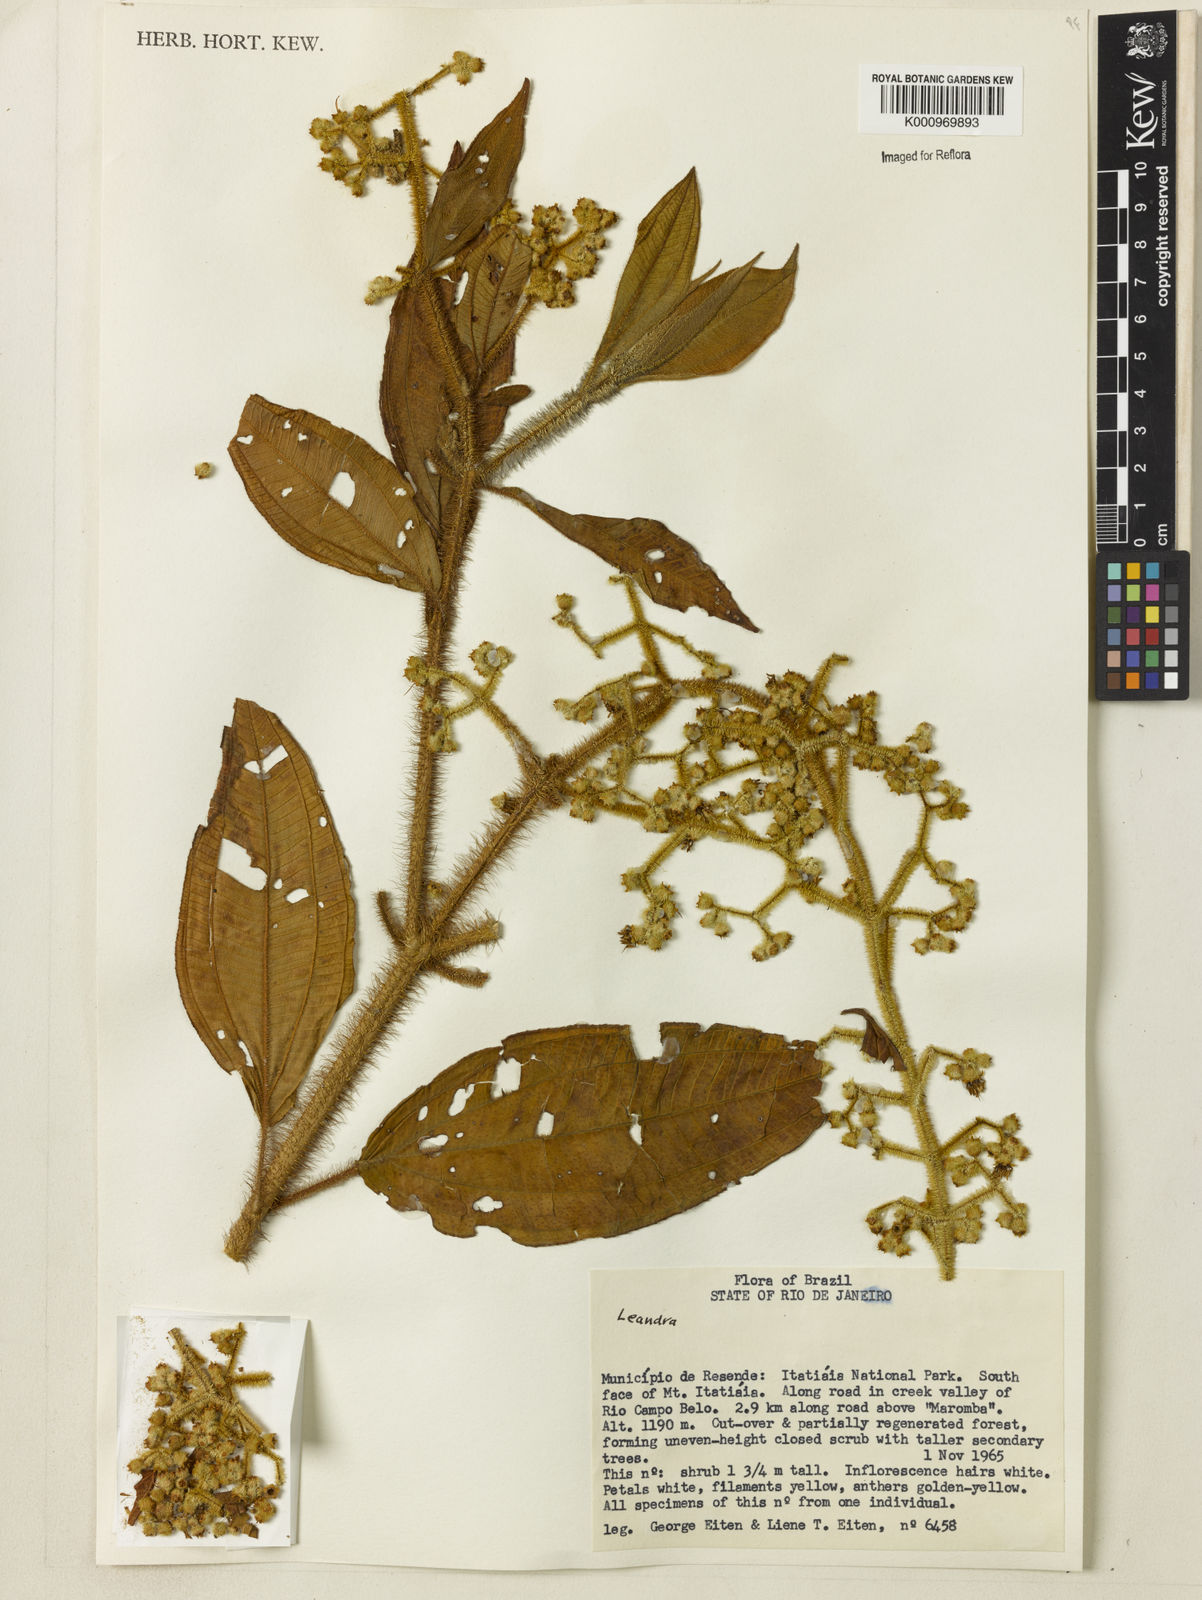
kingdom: Plantae
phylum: Tracheophyta
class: Magnoliopsida
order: Myrtales
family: Melastomataceae
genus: Miconia
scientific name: Miconia
